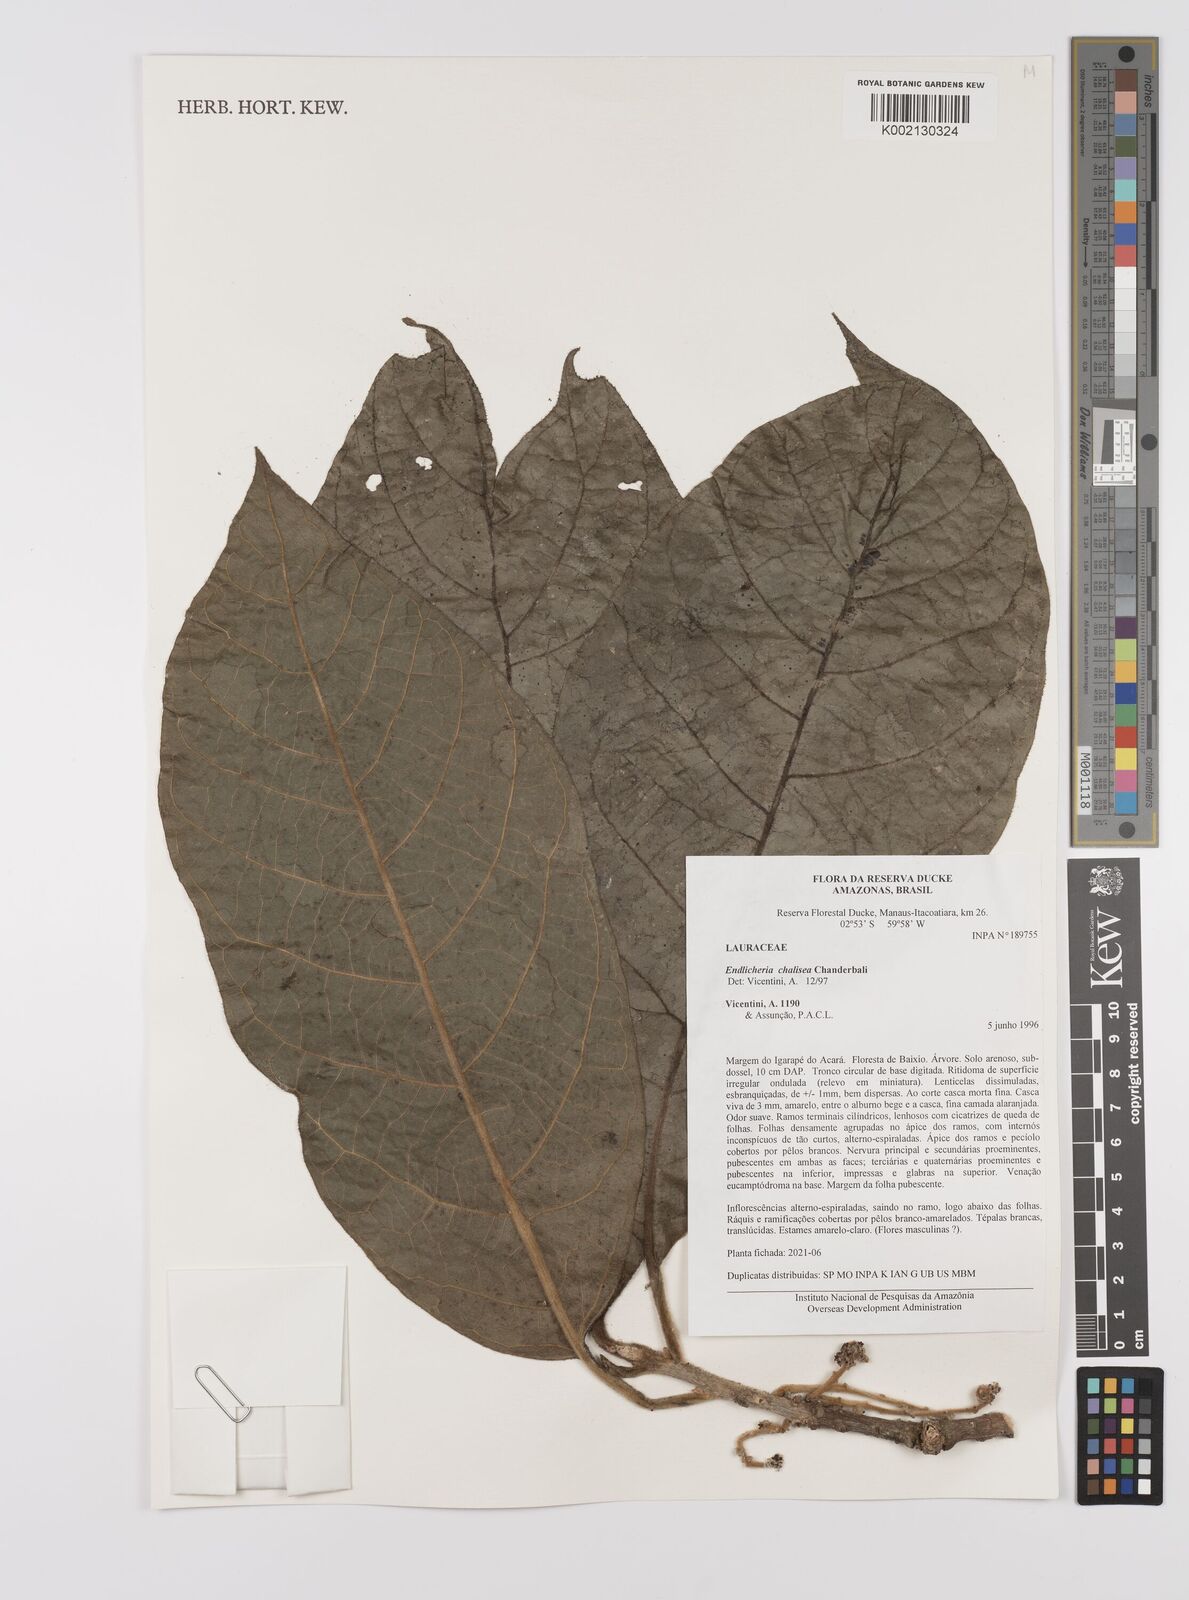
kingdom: Plantae
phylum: Tracheophyta
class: Magnoliopsida
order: Laurales
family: Lauraceae
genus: Endlicheria
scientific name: Endlicheria chalisea
